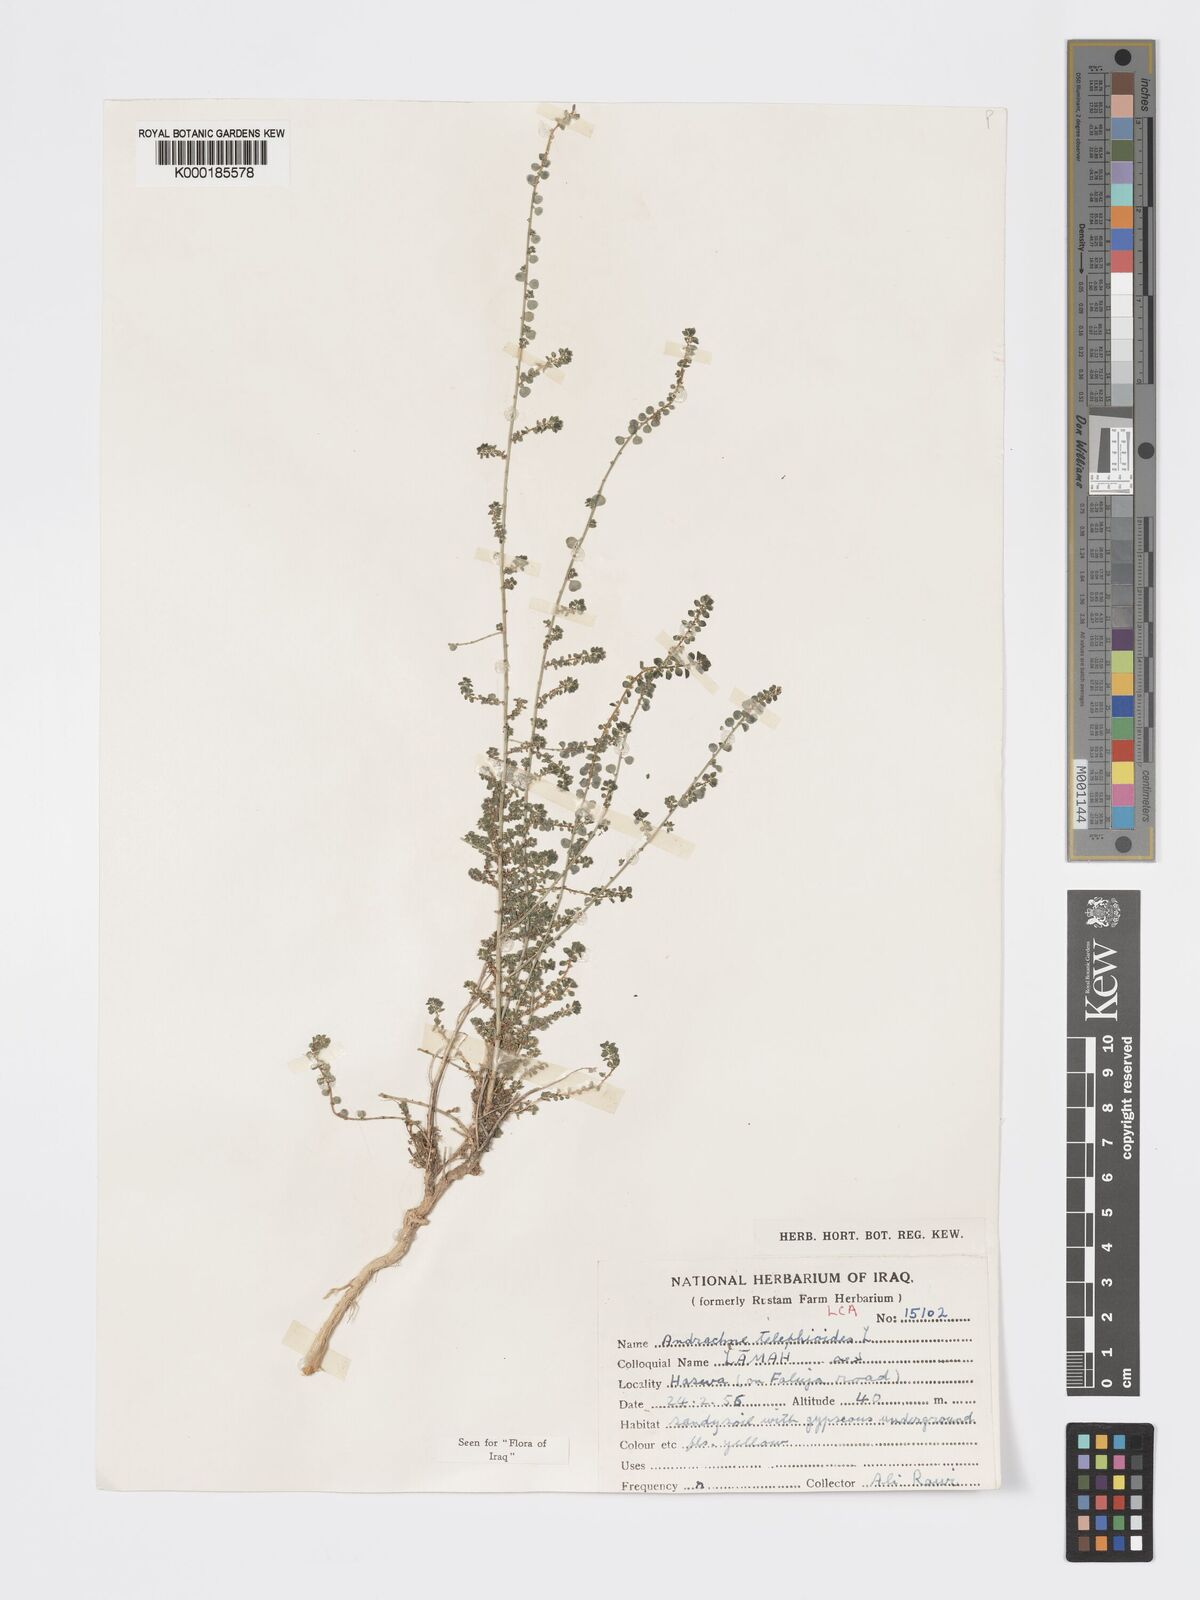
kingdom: Plantae
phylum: Tracheophyta
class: Magnoliopsida
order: Malpighiales
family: Phyllanthaceae
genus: Andrachne
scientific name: Andrachne telephioides
